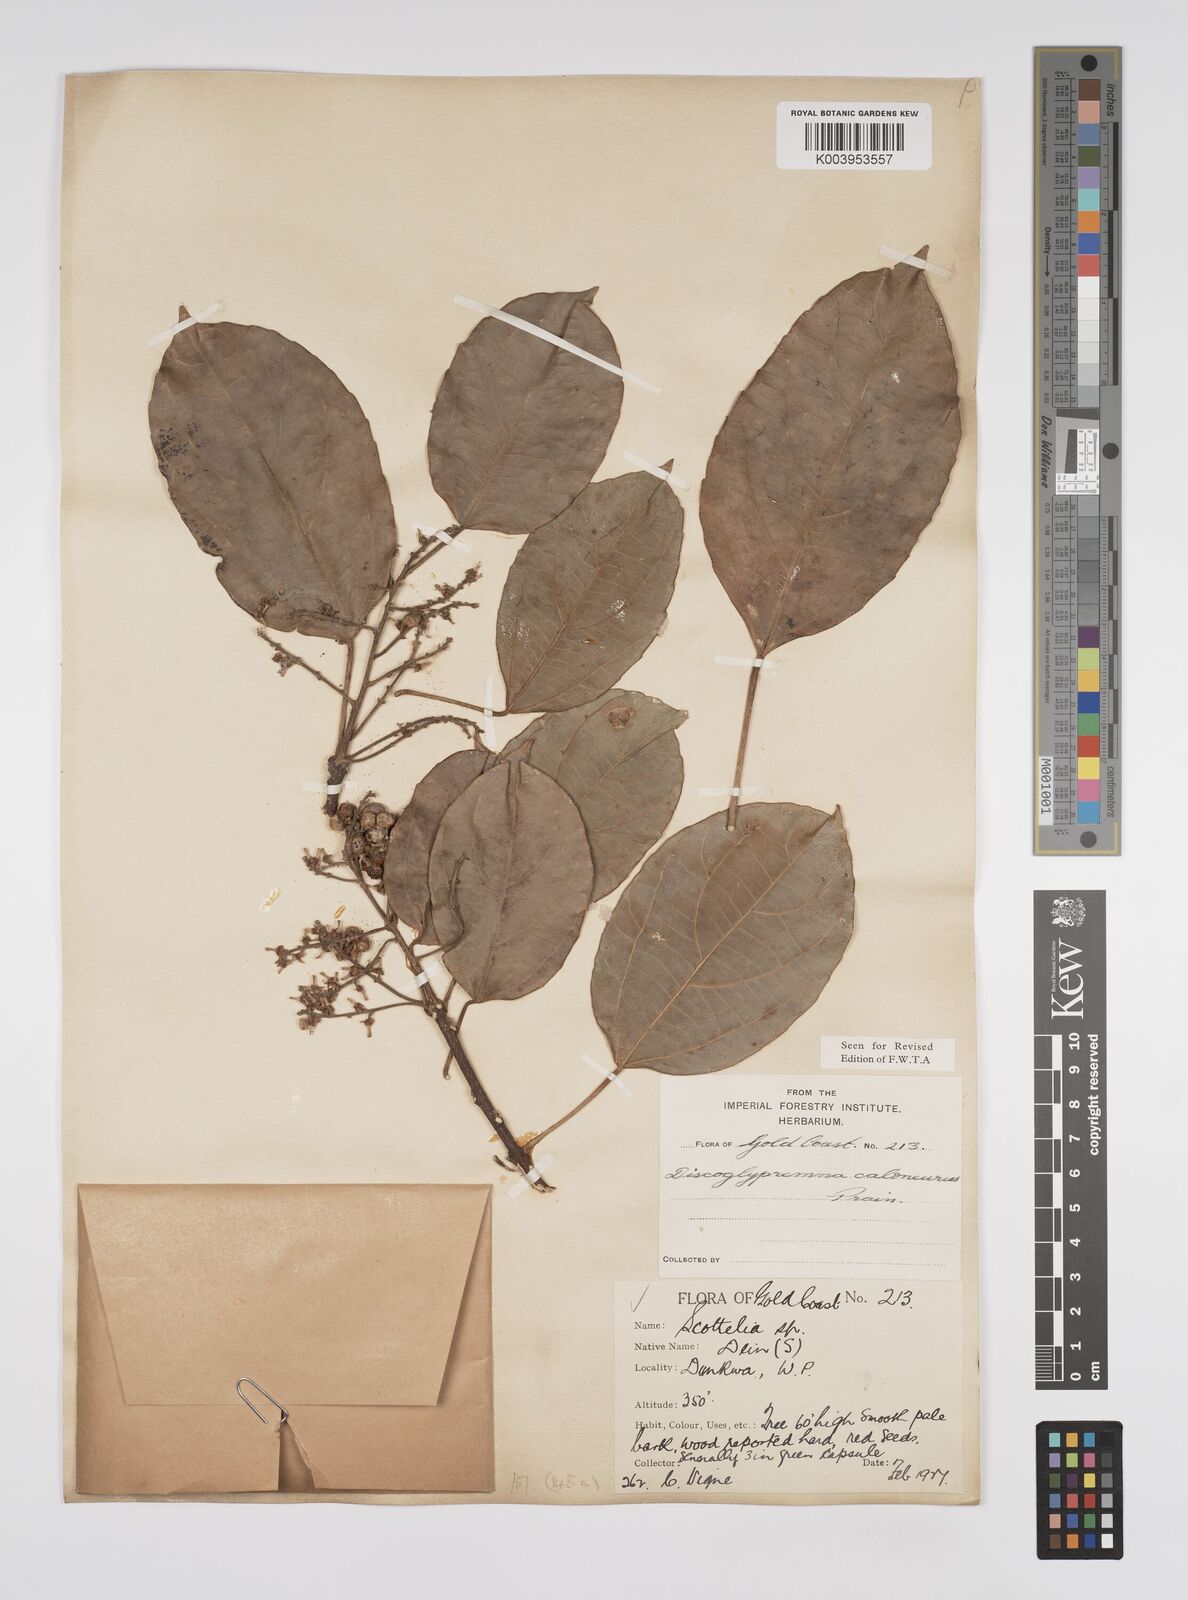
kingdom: Plantae
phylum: Tracheophyta
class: Magnoliopsida
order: Malpighiales
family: Euphorbiaceae
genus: Discoglypremna
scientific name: Discoglypremna caloneura
